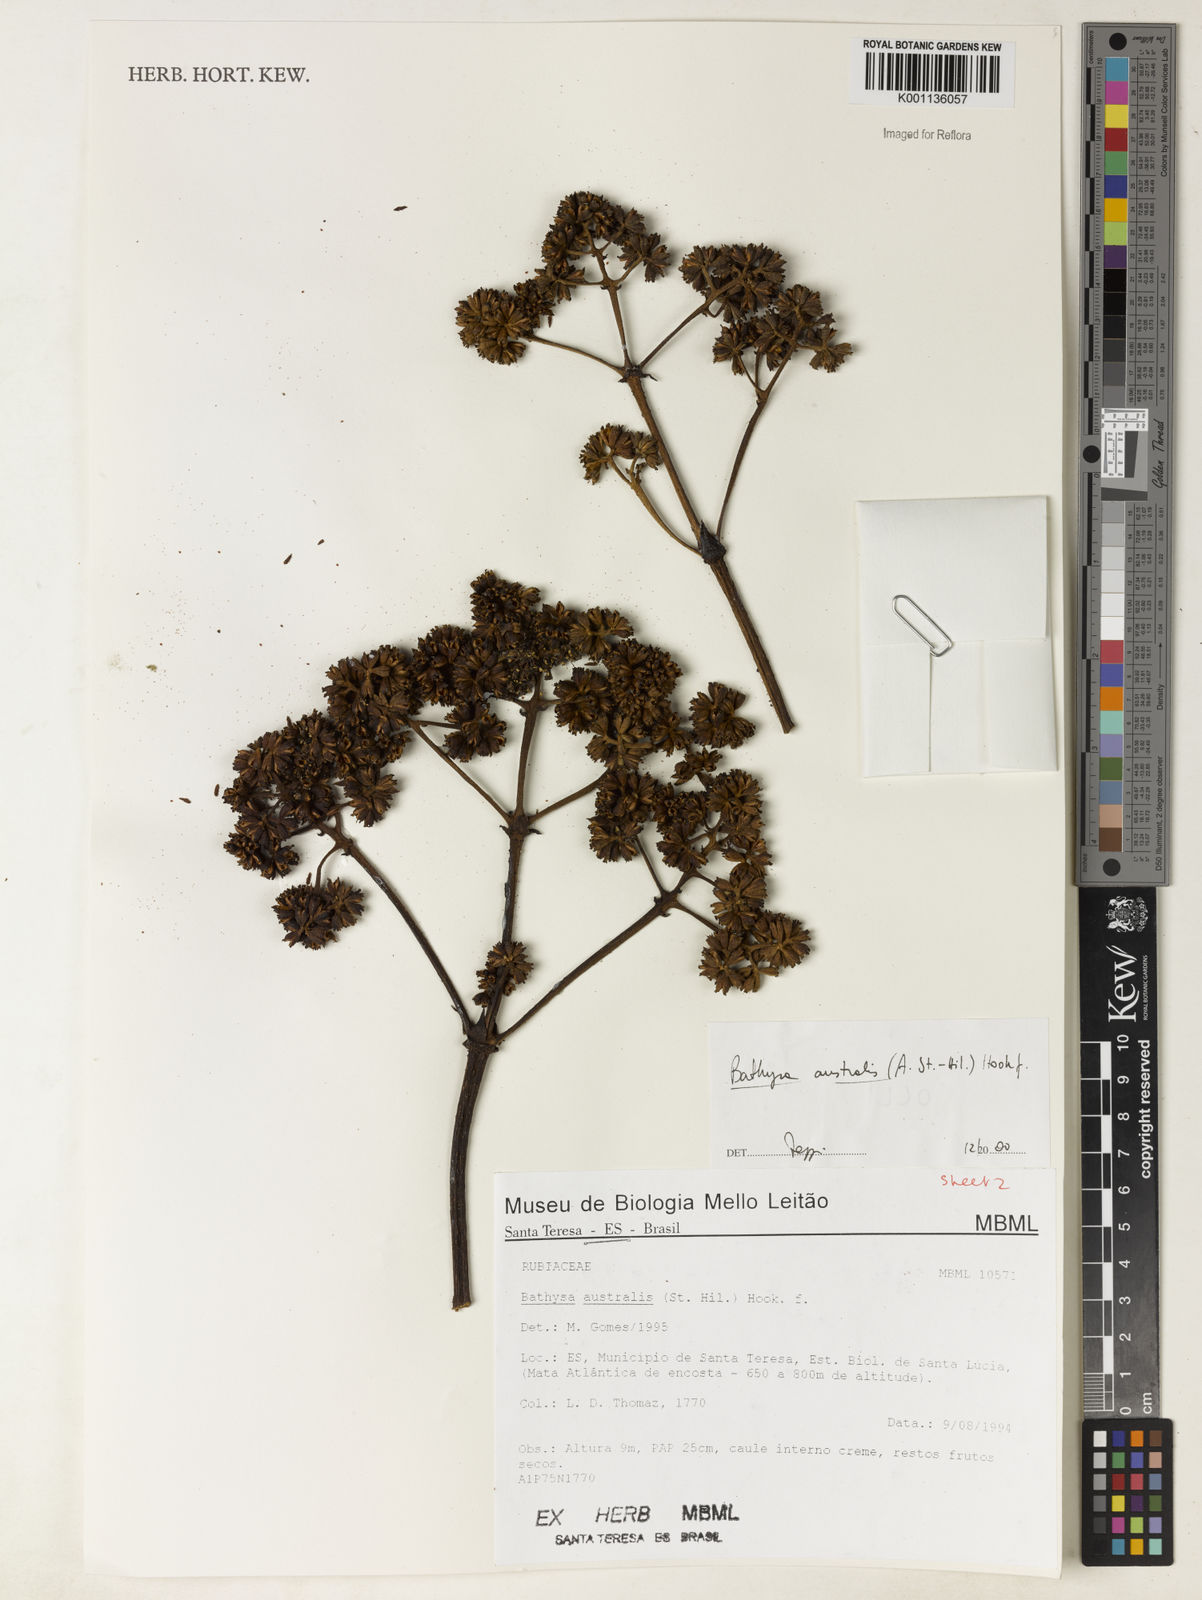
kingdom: Plantae
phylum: Tracheophyta
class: Magnoliopsida
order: Gentianales
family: Rubiaceae
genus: Bathysa
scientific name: Bathysa australis
